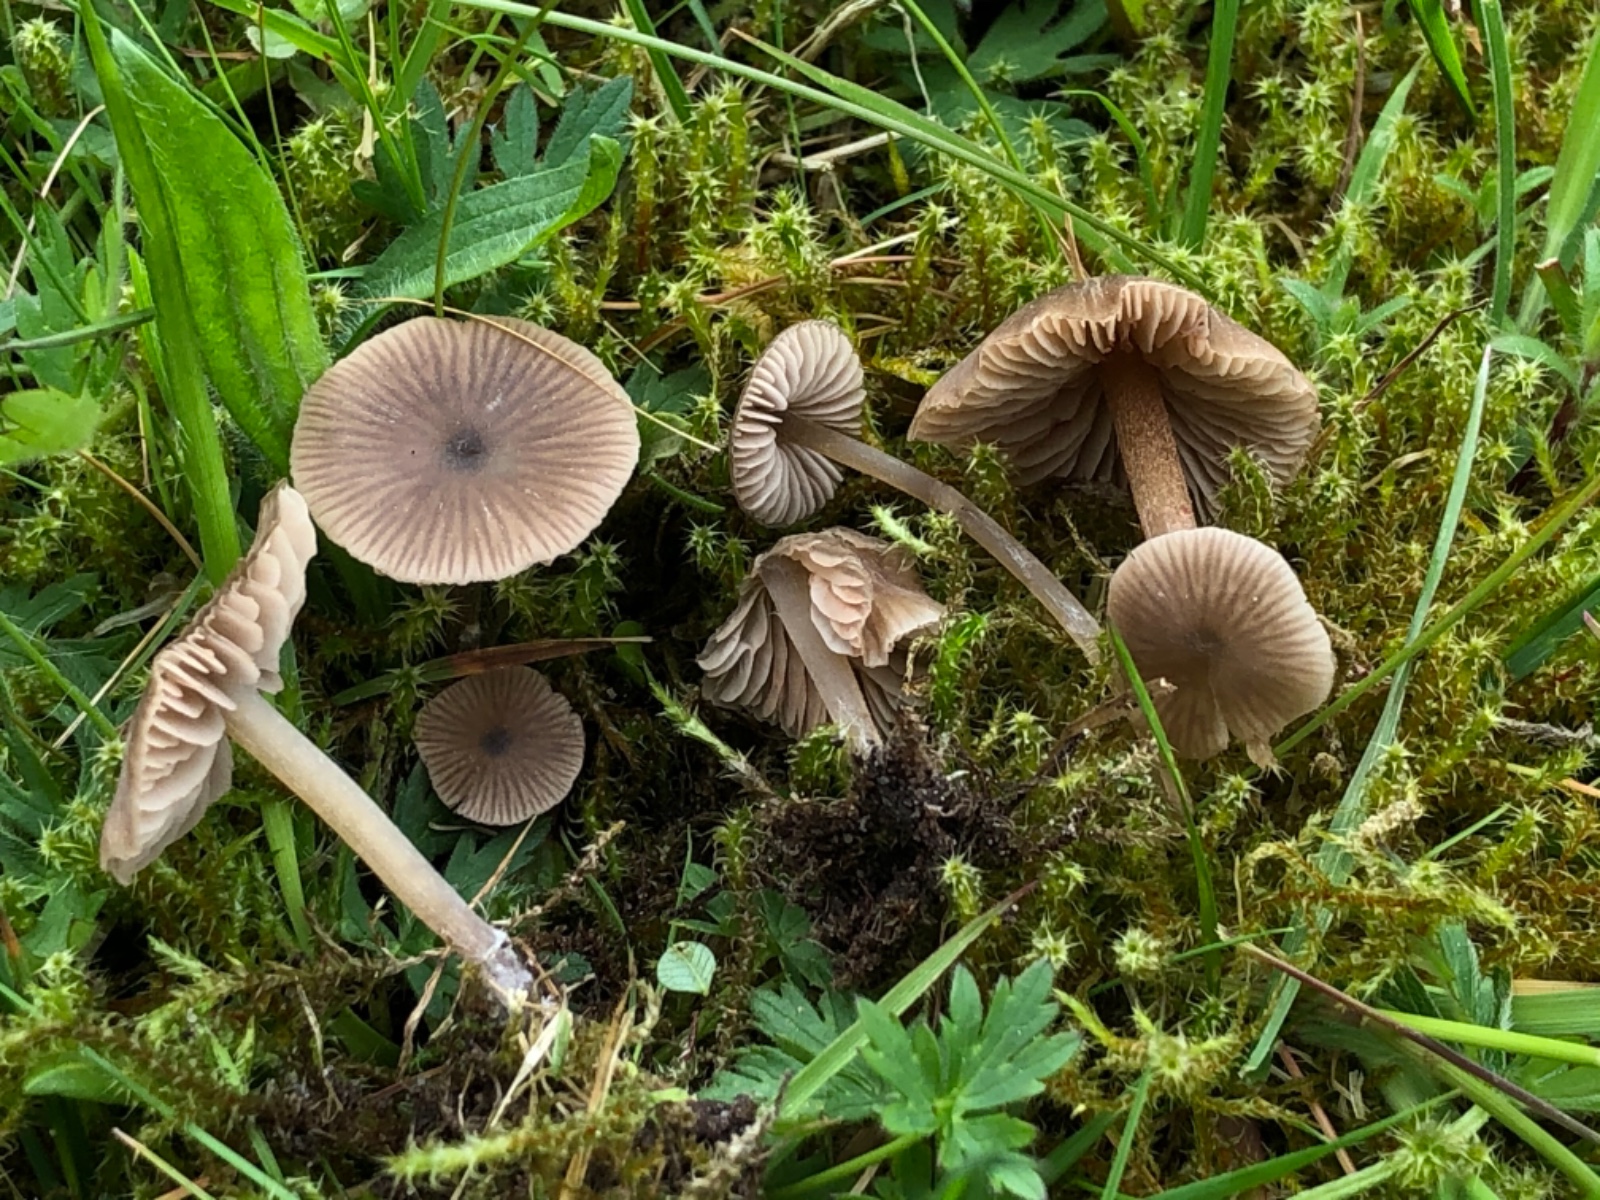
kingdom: Fungi
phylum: Basidiomycota
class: Agaricomycetes
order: Agaricales
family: Entolomataceae
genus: Entoloma
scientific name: Entoloma ventricosum
